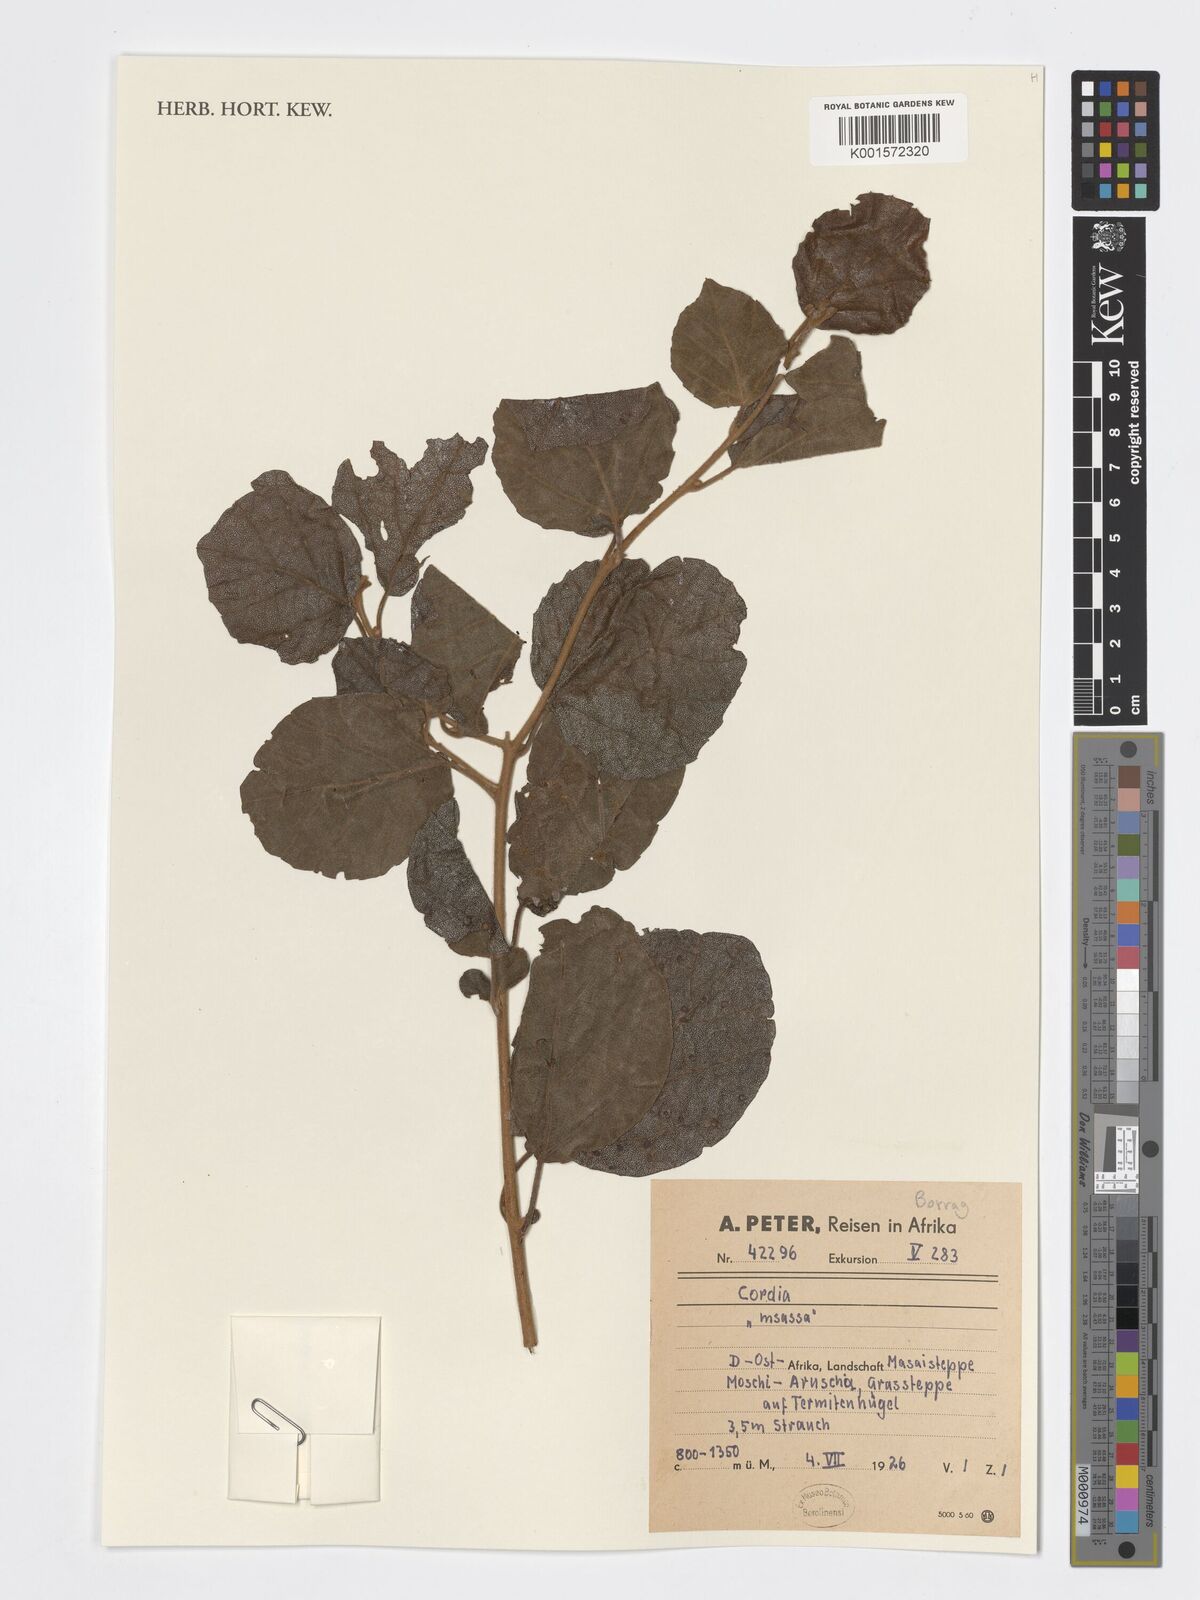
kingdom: Plantae
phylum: Tracheophyta
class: Magnoliopsida
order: Boraginales
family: Cordiaceae
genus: Cordia
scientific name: Cordia
